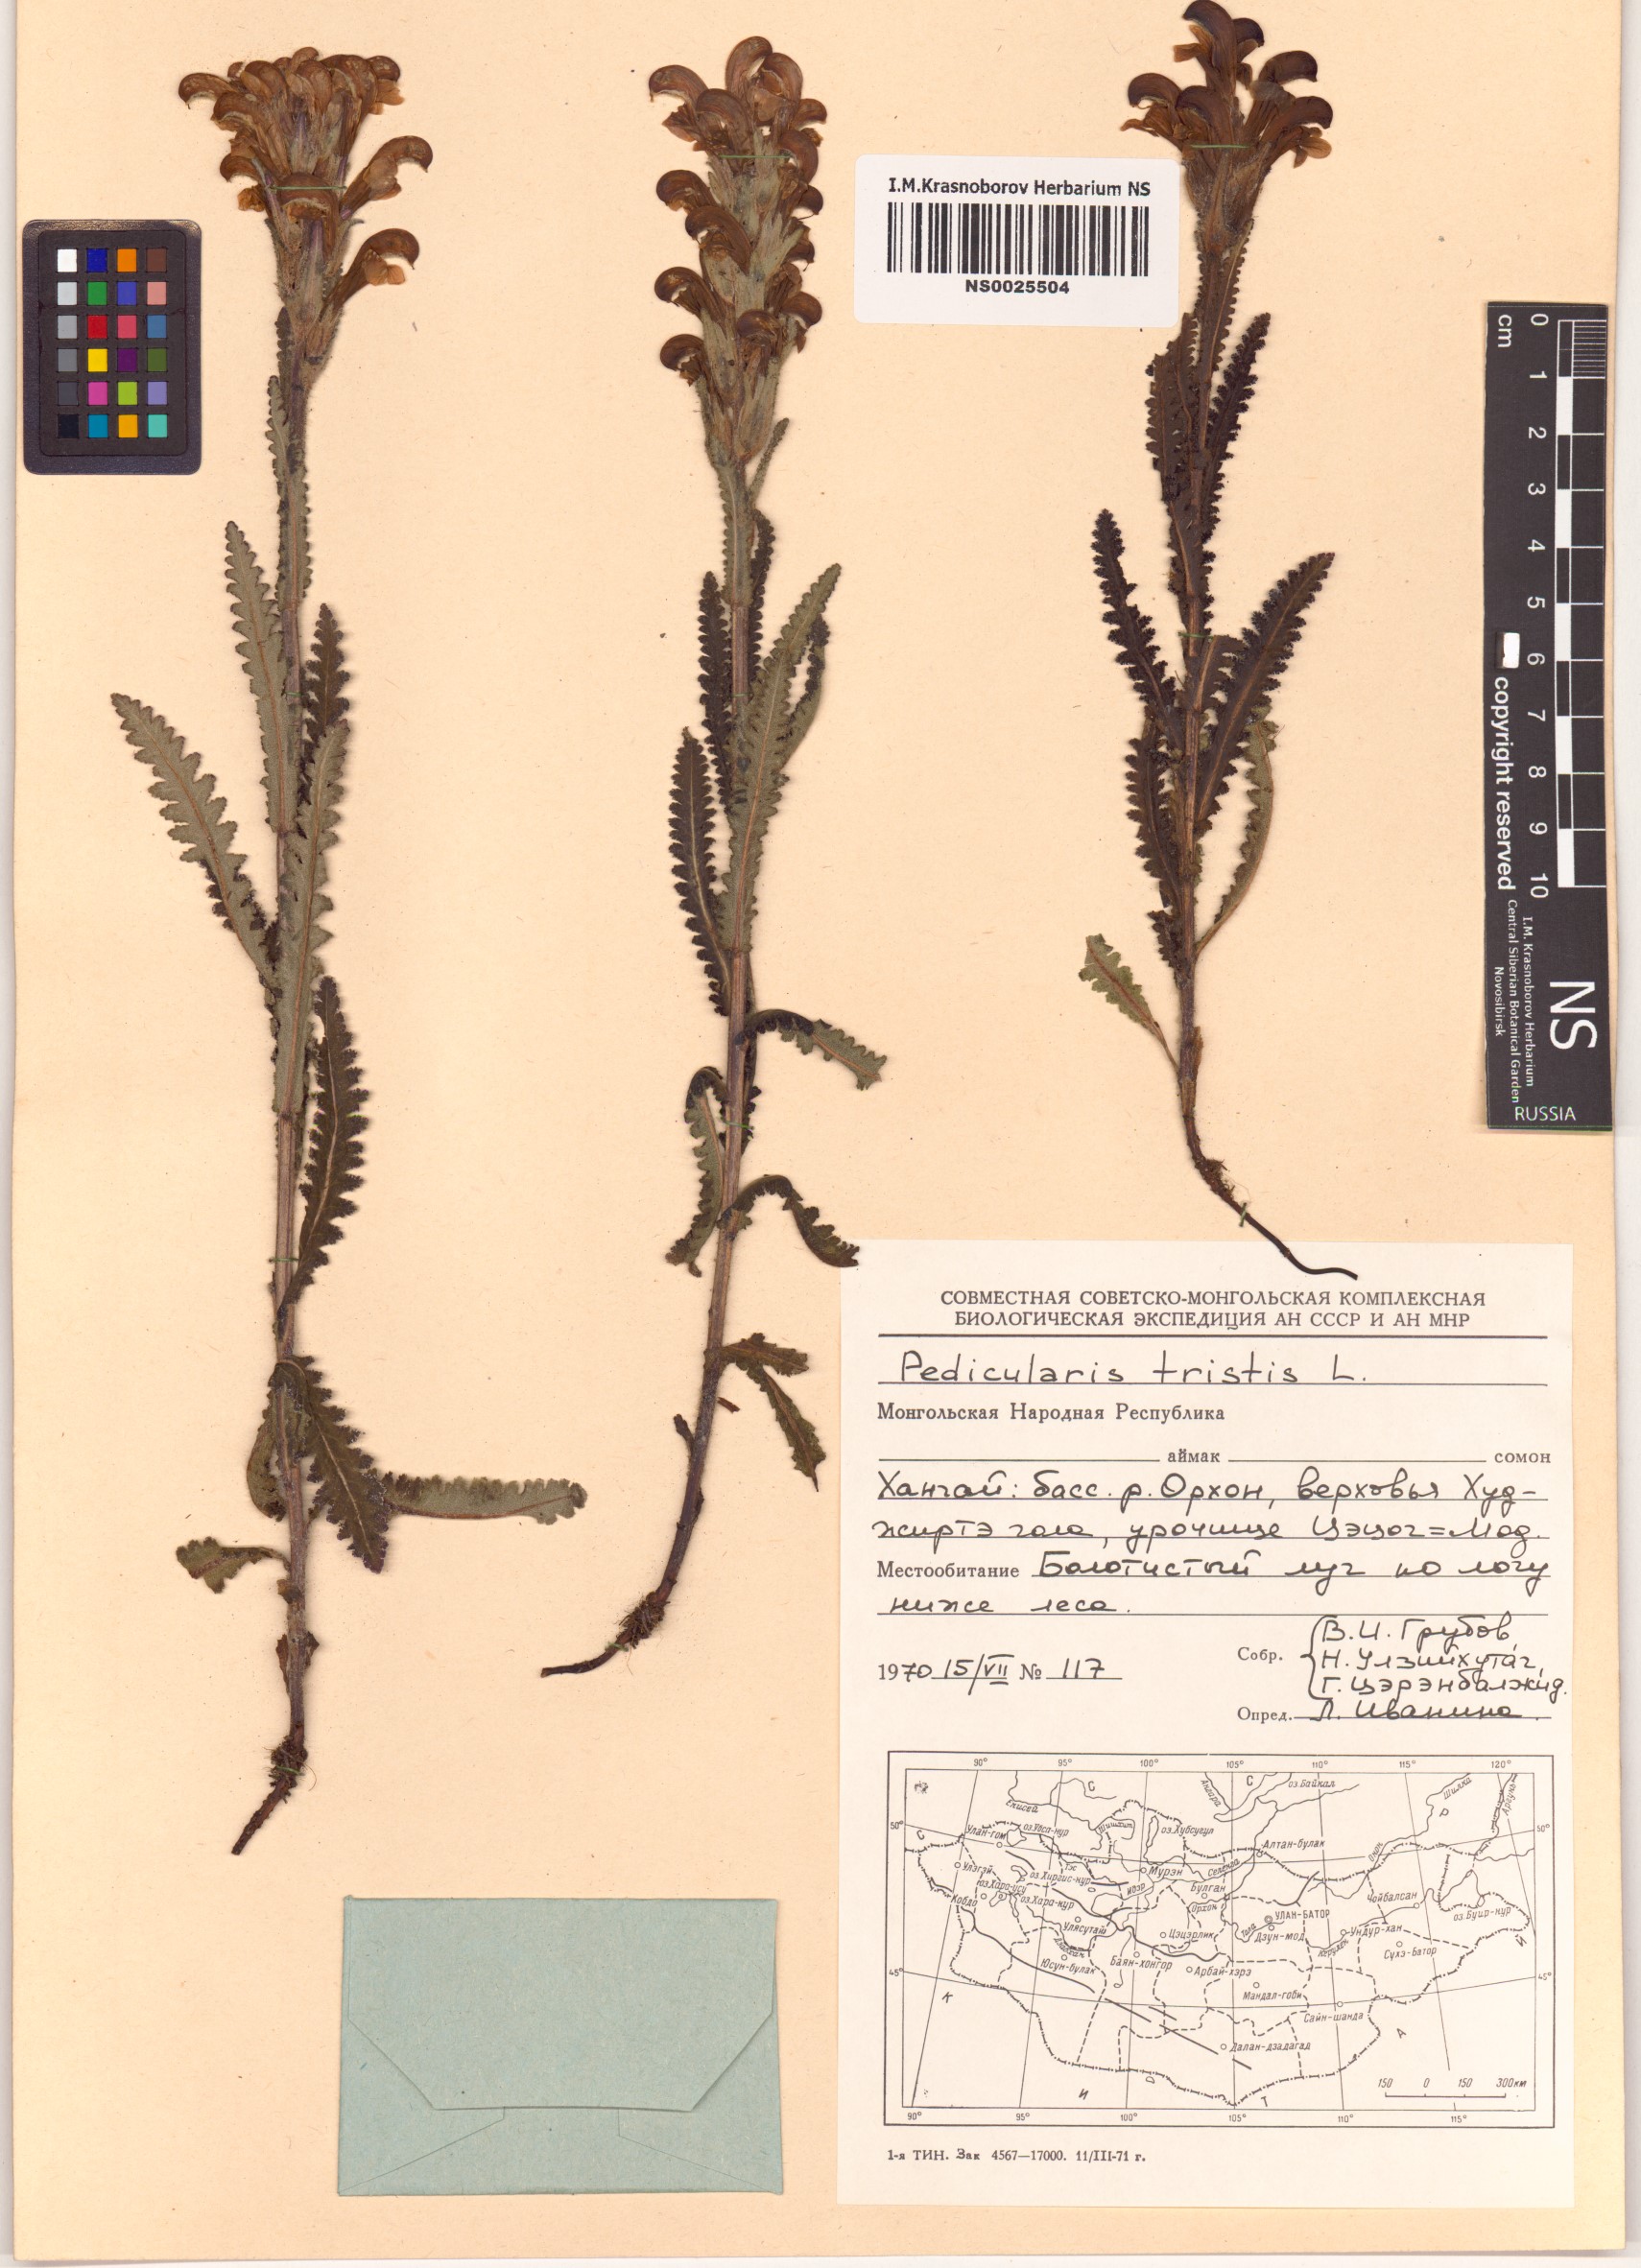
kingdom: Plantae
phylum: Tracheophyta
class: Magnoliopsida
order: Lamiales
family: Orobanchaceae
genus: Pedicularis
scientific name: Pedicularis tristis
